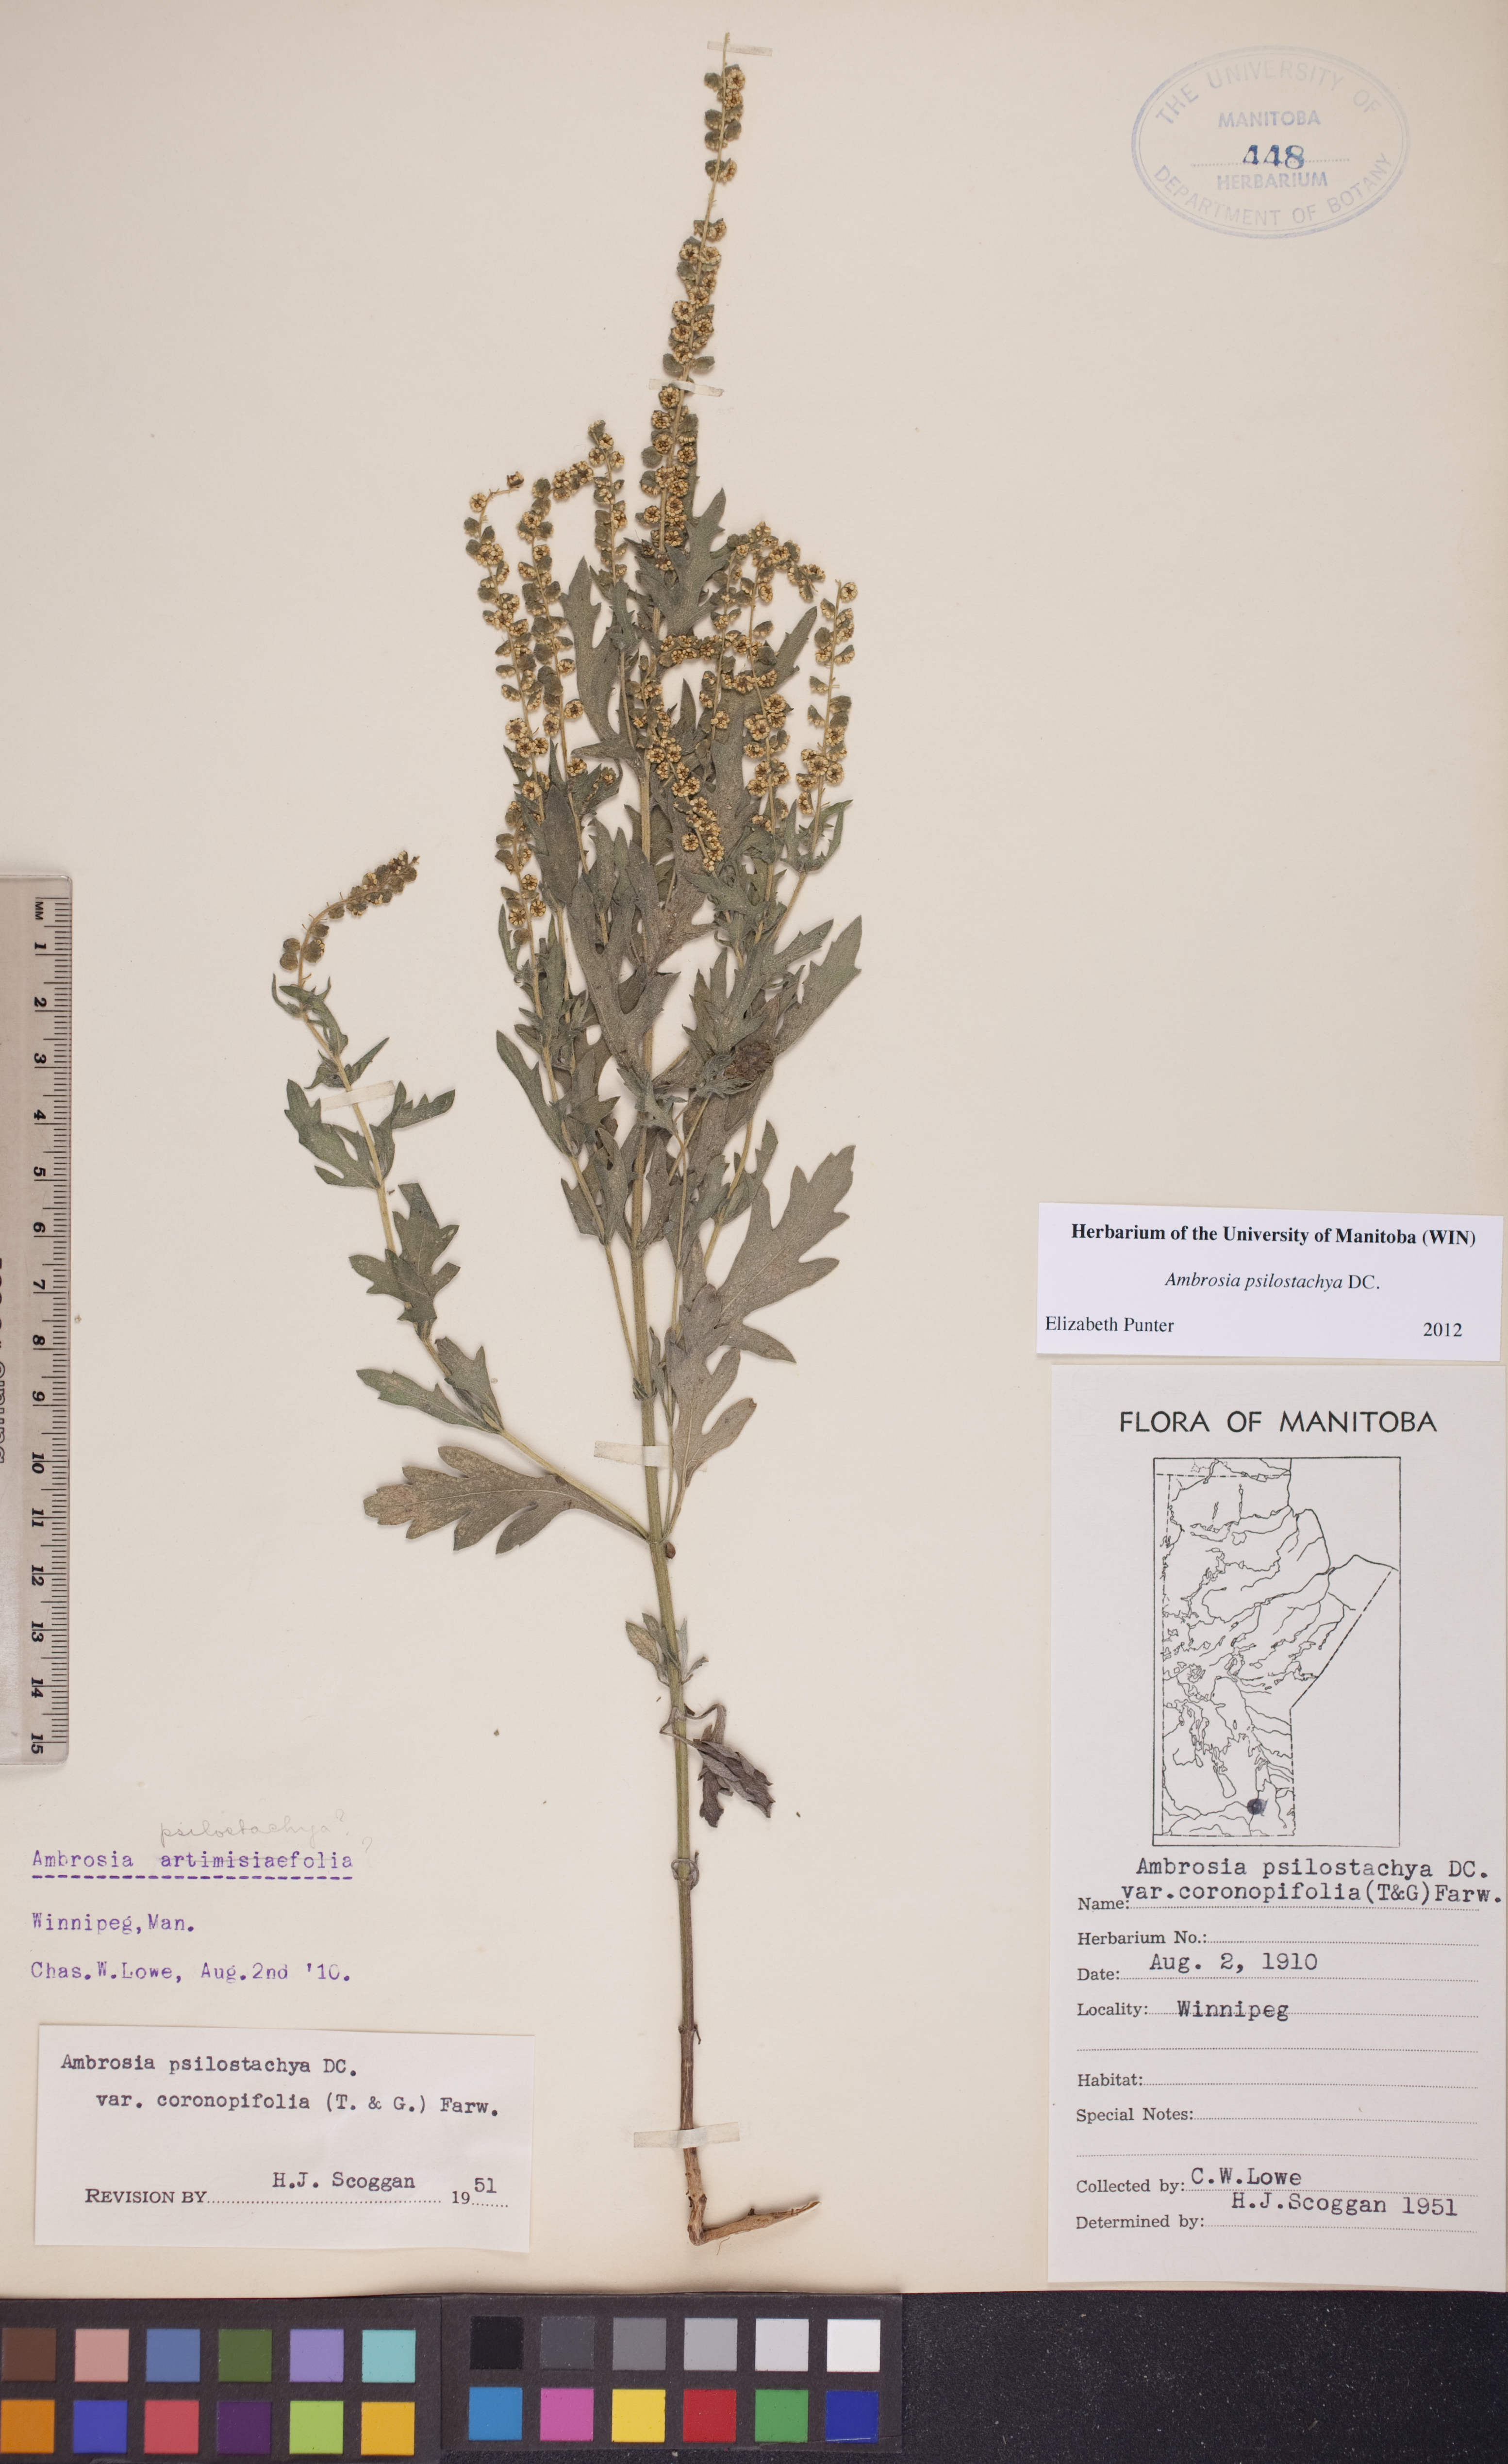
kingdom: Plantae
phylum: Tracheophyta
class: Magnoliopsida
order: Asterales
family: Asteraceae
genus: Ambrosia
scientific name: Ambrosia psilostachya
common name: Perennial ragweed
